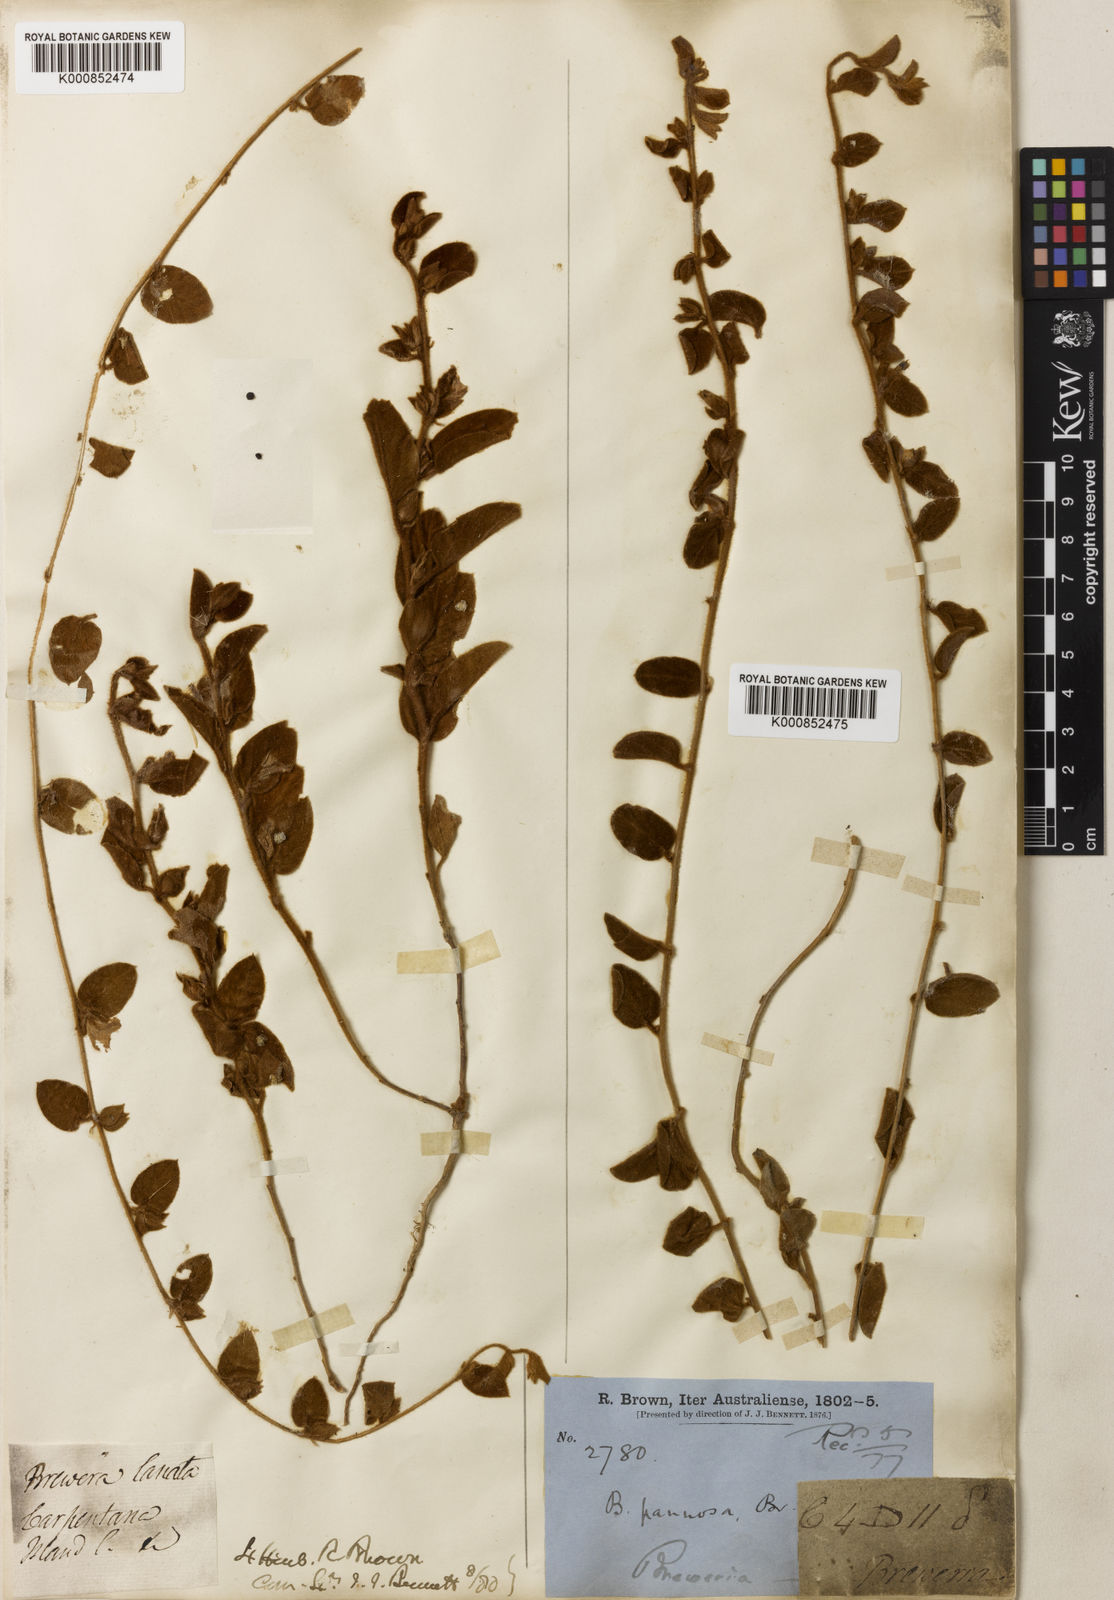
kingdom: Plantae
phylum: Tracheophyta
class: Magnoliopsida
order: Solanales
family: Convolvulaceae
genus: Bonamia
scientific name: Bonamia pannosa
